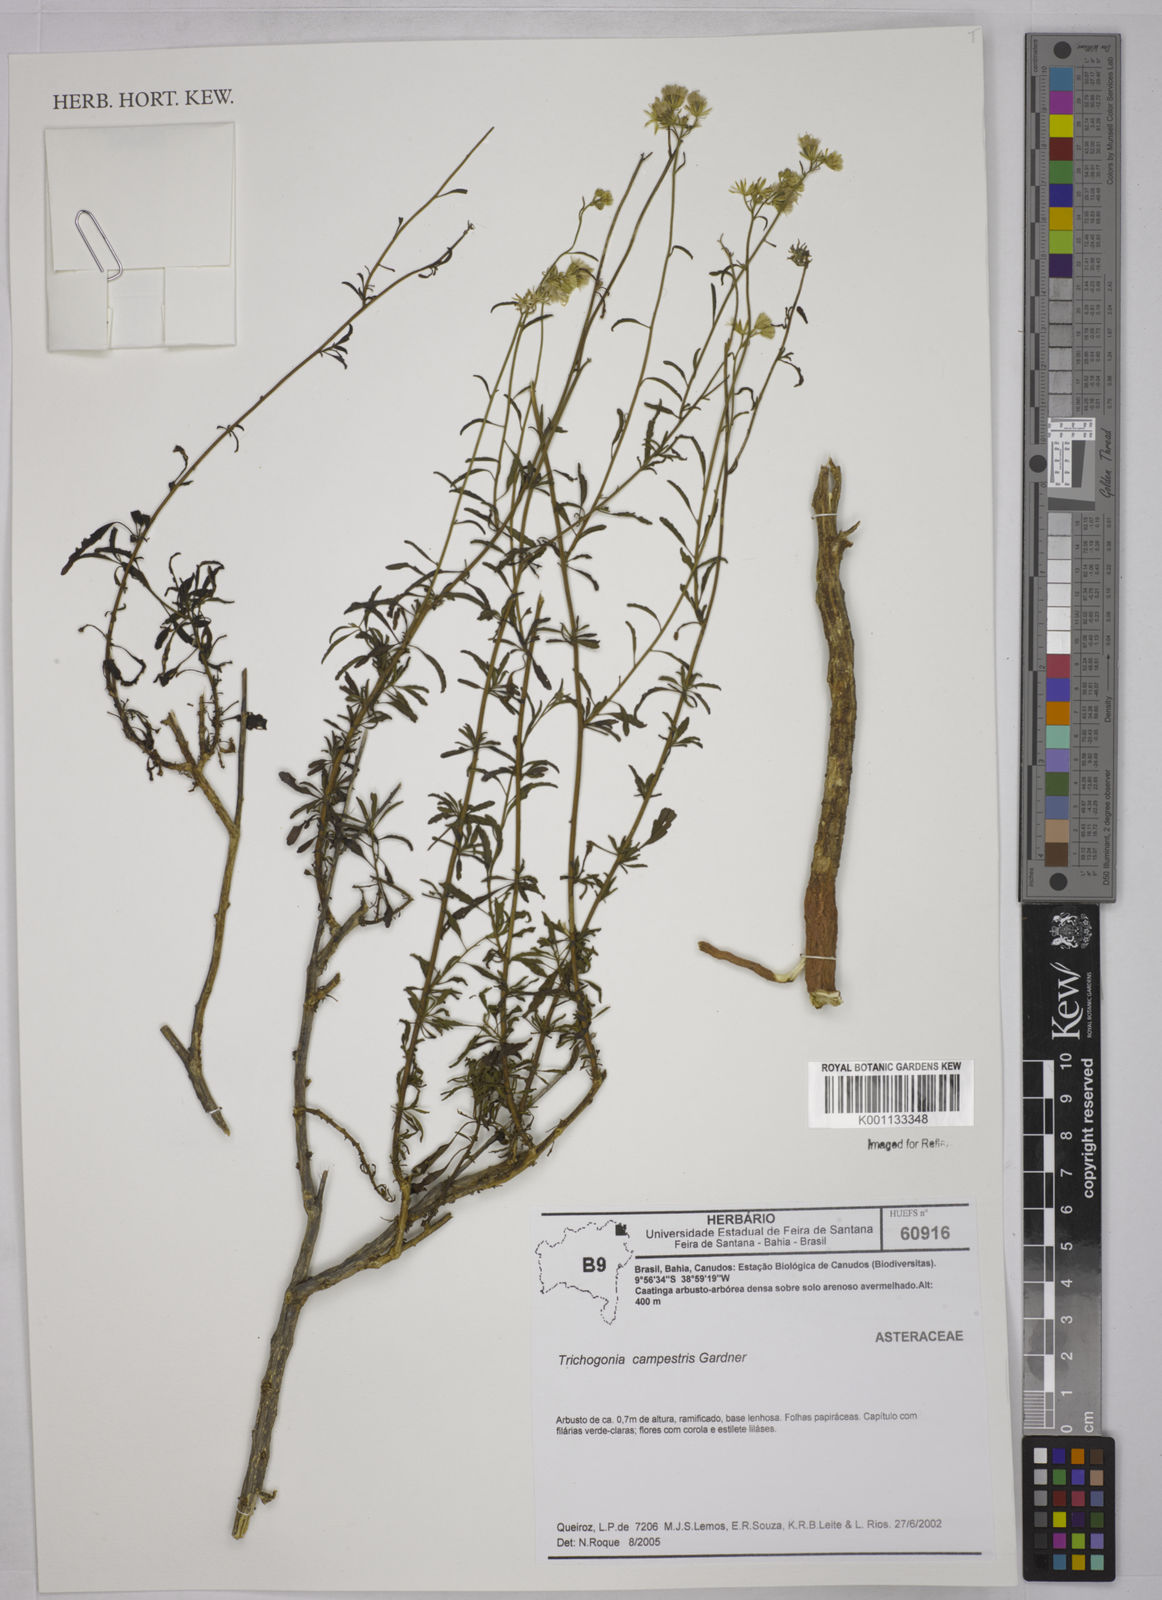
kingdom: Plantae
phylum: Tracheophyta
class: Magnoliopsida
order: Asterales
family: Asteraceae
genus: Trichogonia
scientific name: Trichogonia campestris
